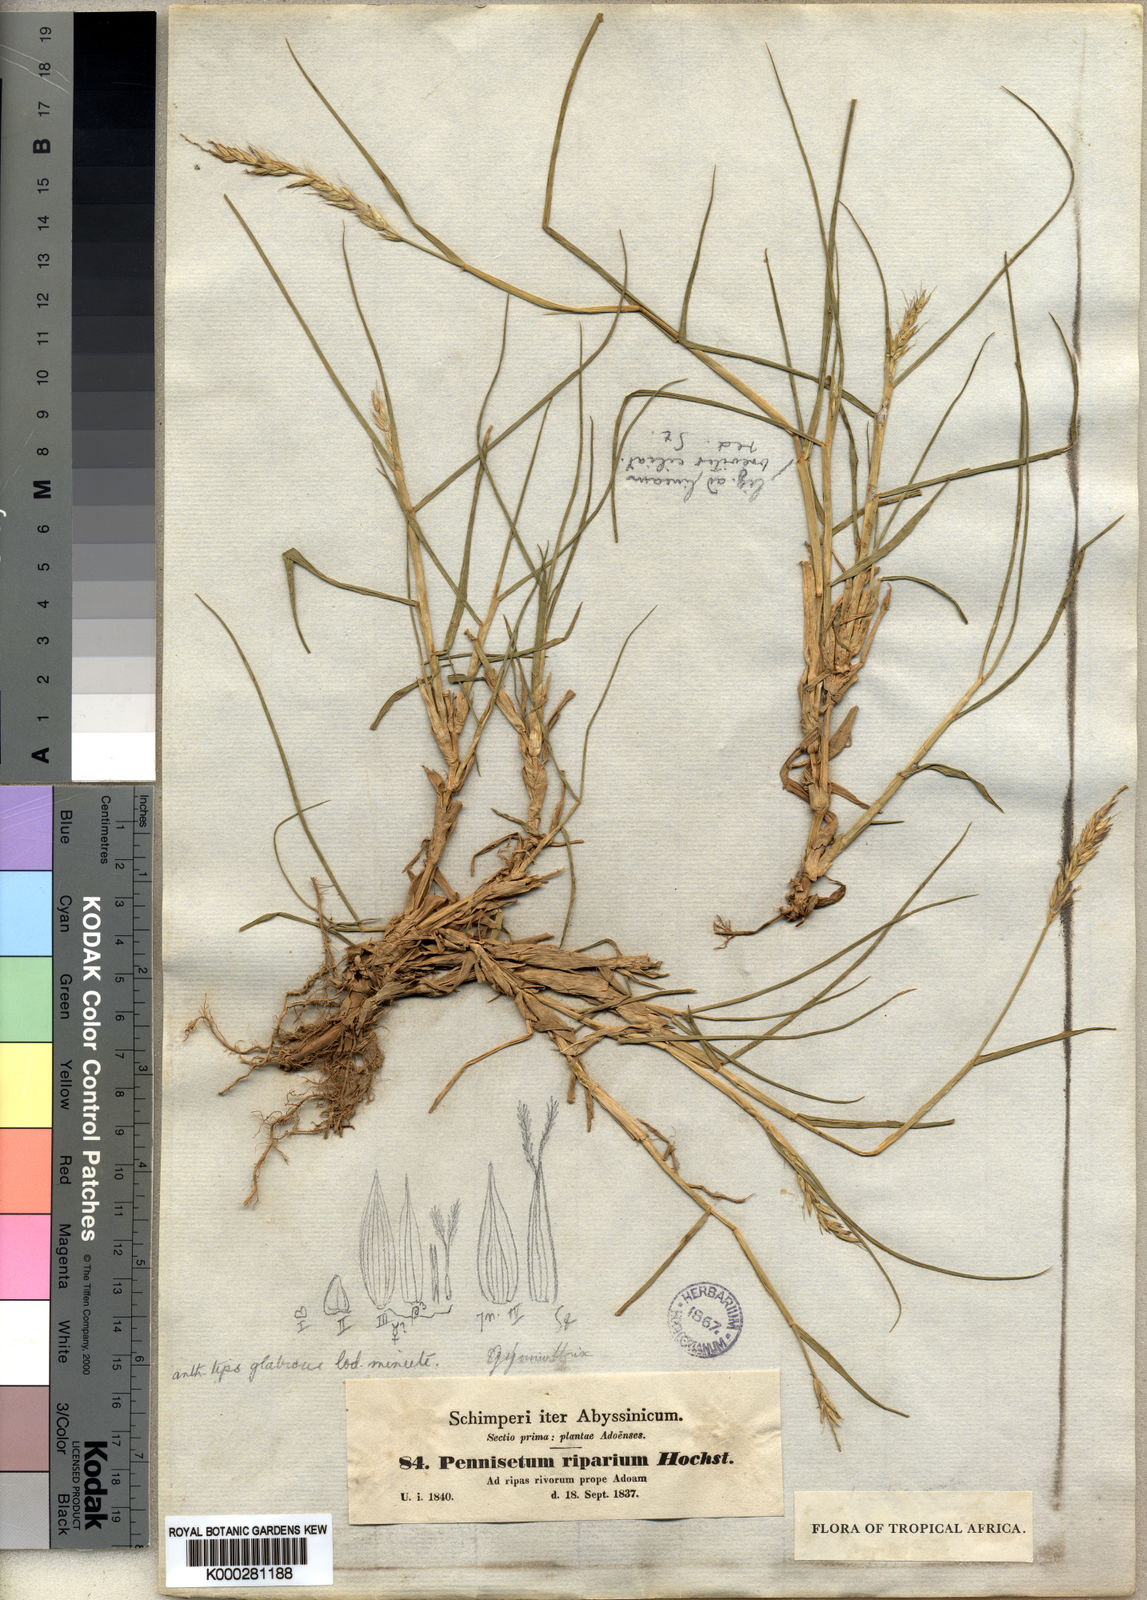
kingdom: Plantae
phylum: Tracheophyta
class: Liliopsida
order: Poales
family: Poaceae
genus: Cenchrus
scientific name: Cenchrus riparius
